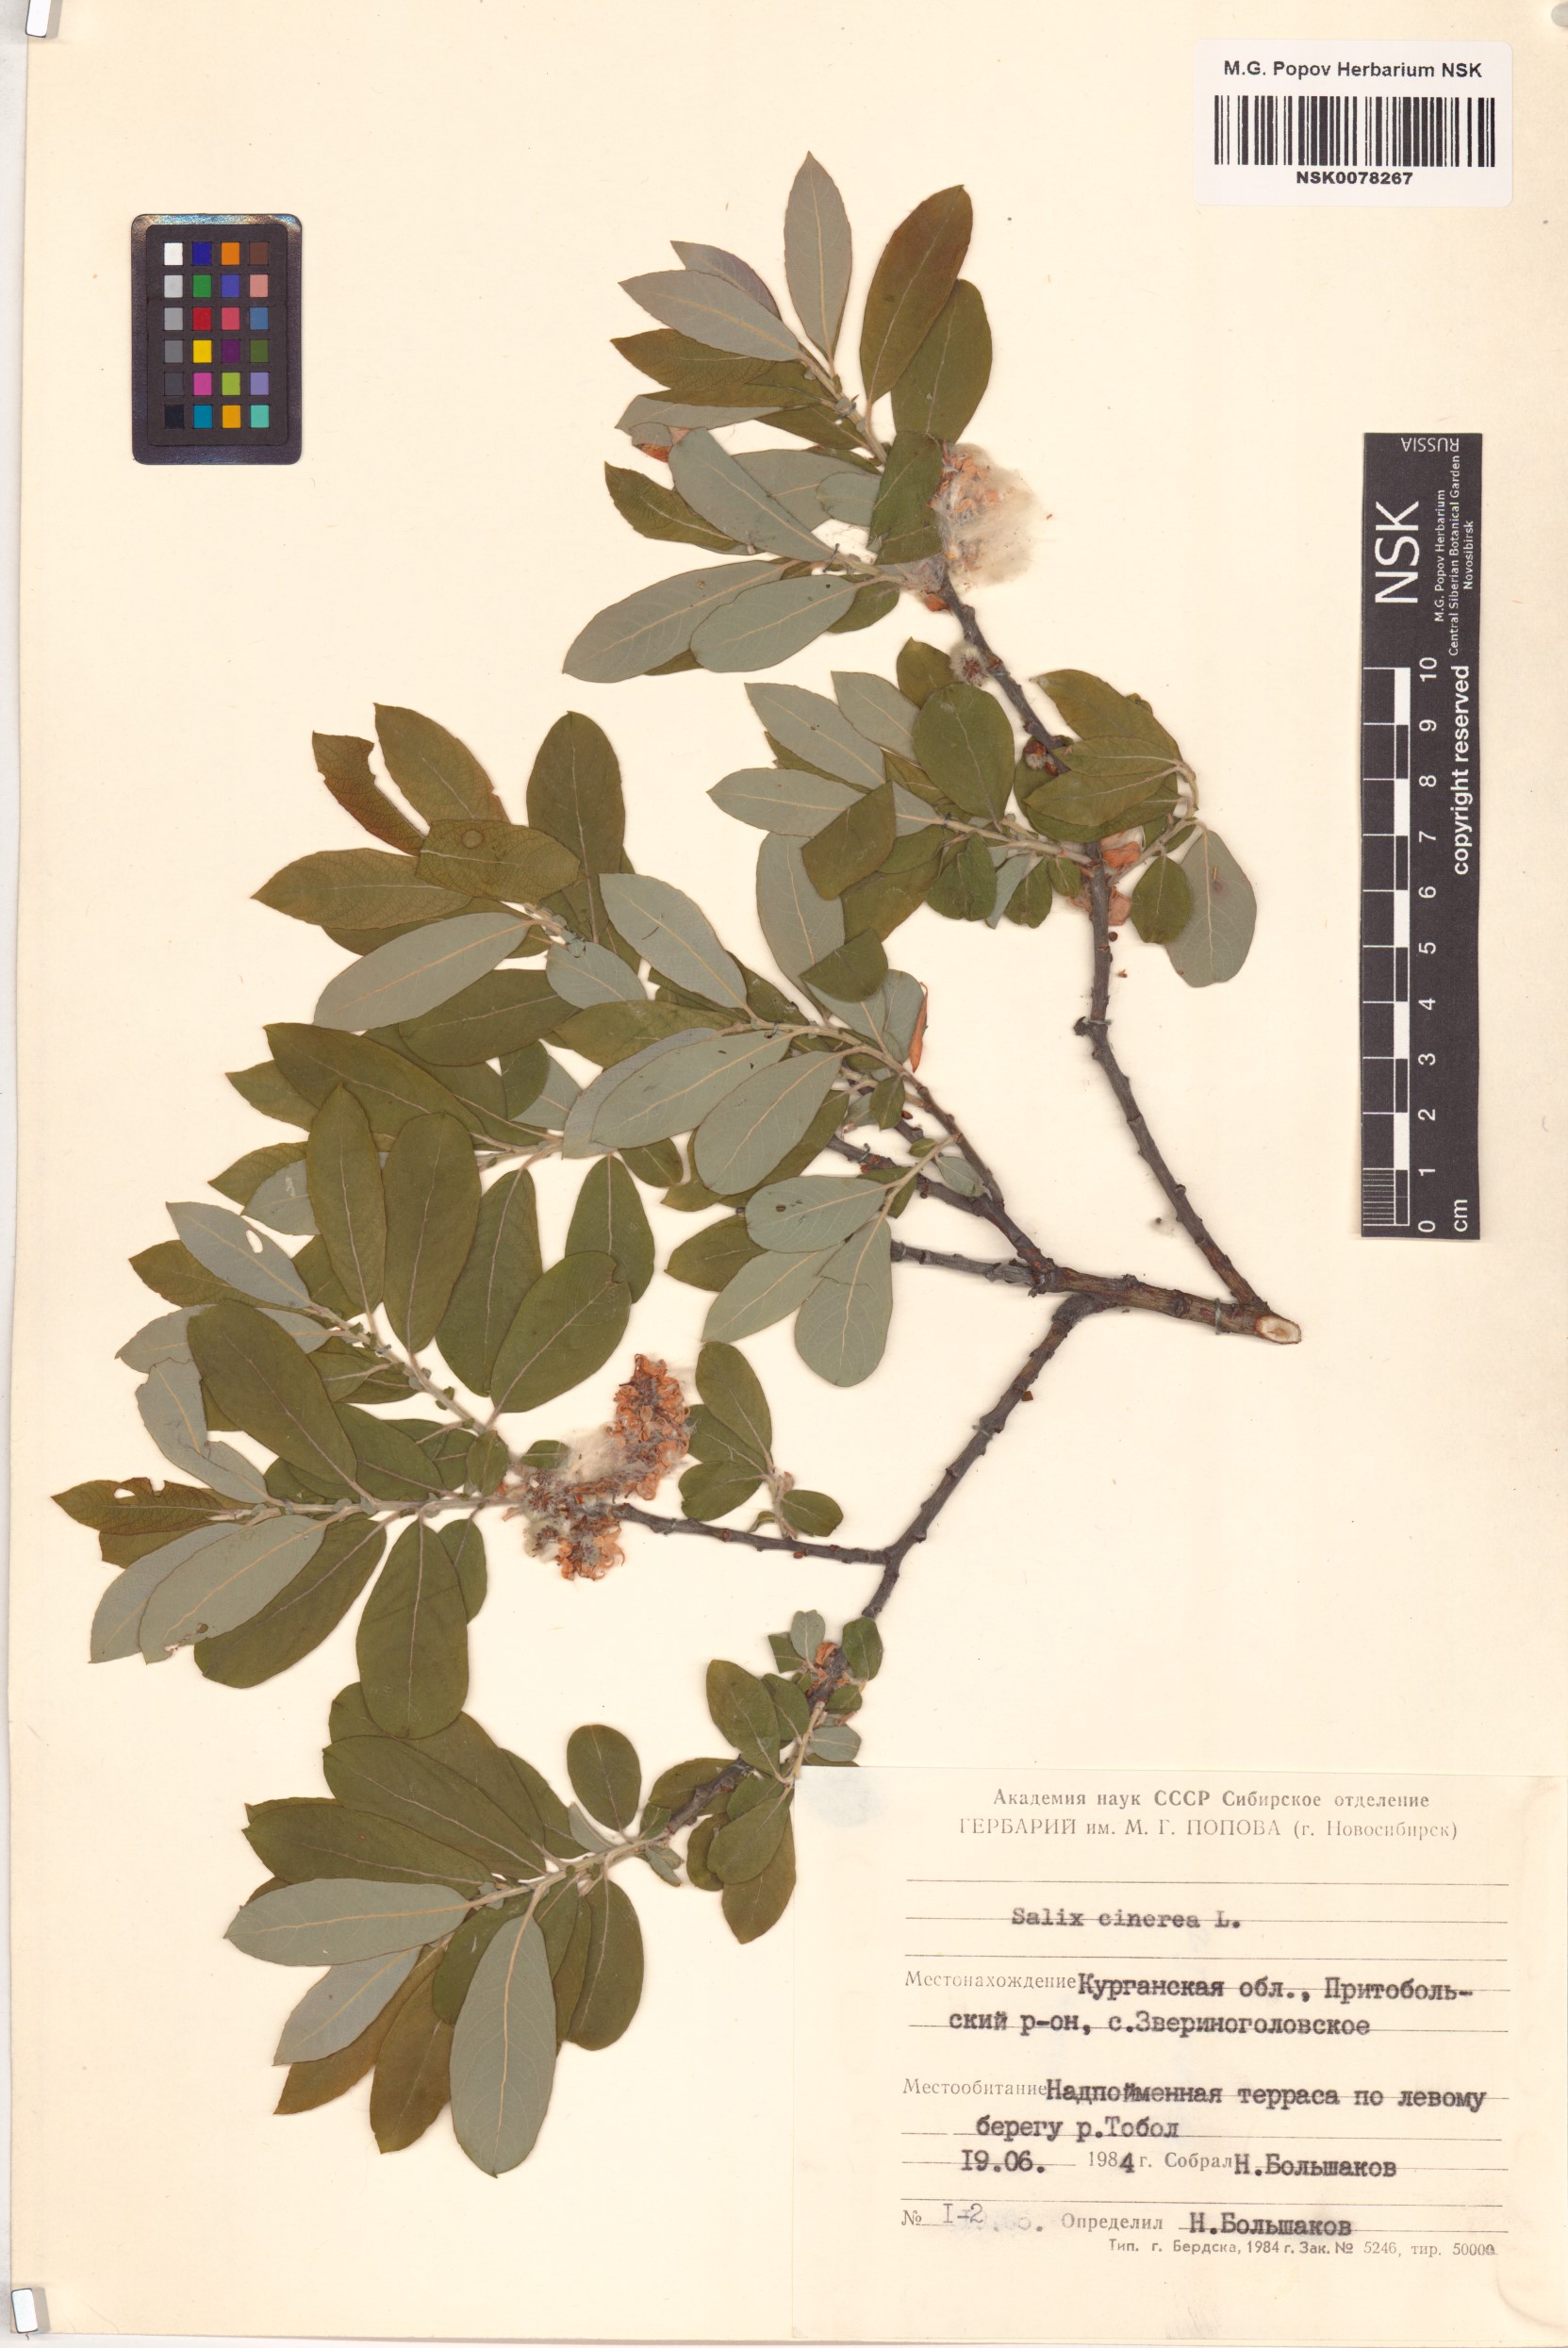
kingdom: Plantae
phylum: Tracheophyta
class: Magnoliopsida
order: Malpighiales
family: Salicaceae
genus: Salix
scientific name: Salix cinerea
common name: Common sallow
